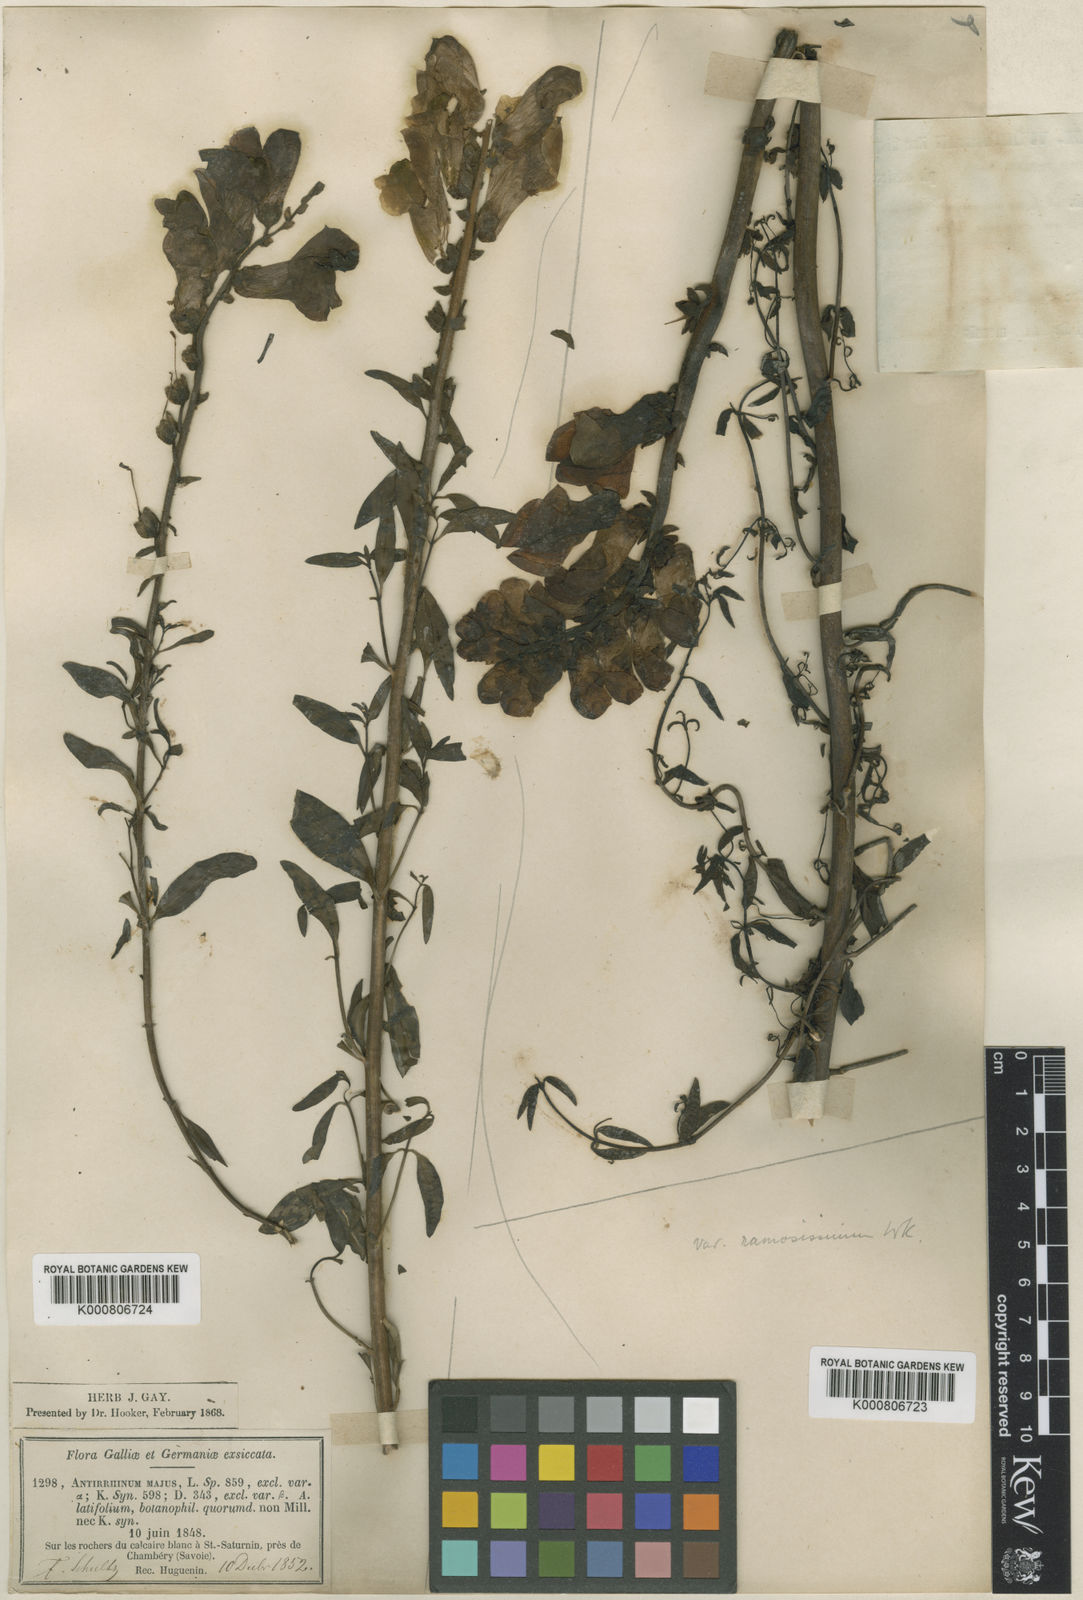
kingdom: Plantae
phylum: Tracheophyta
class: Magnoliopsida
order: Lamiales
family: Plantaginaceae
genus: Antirrhinum
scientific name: Antirrhinum majus
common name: Snapdragon
